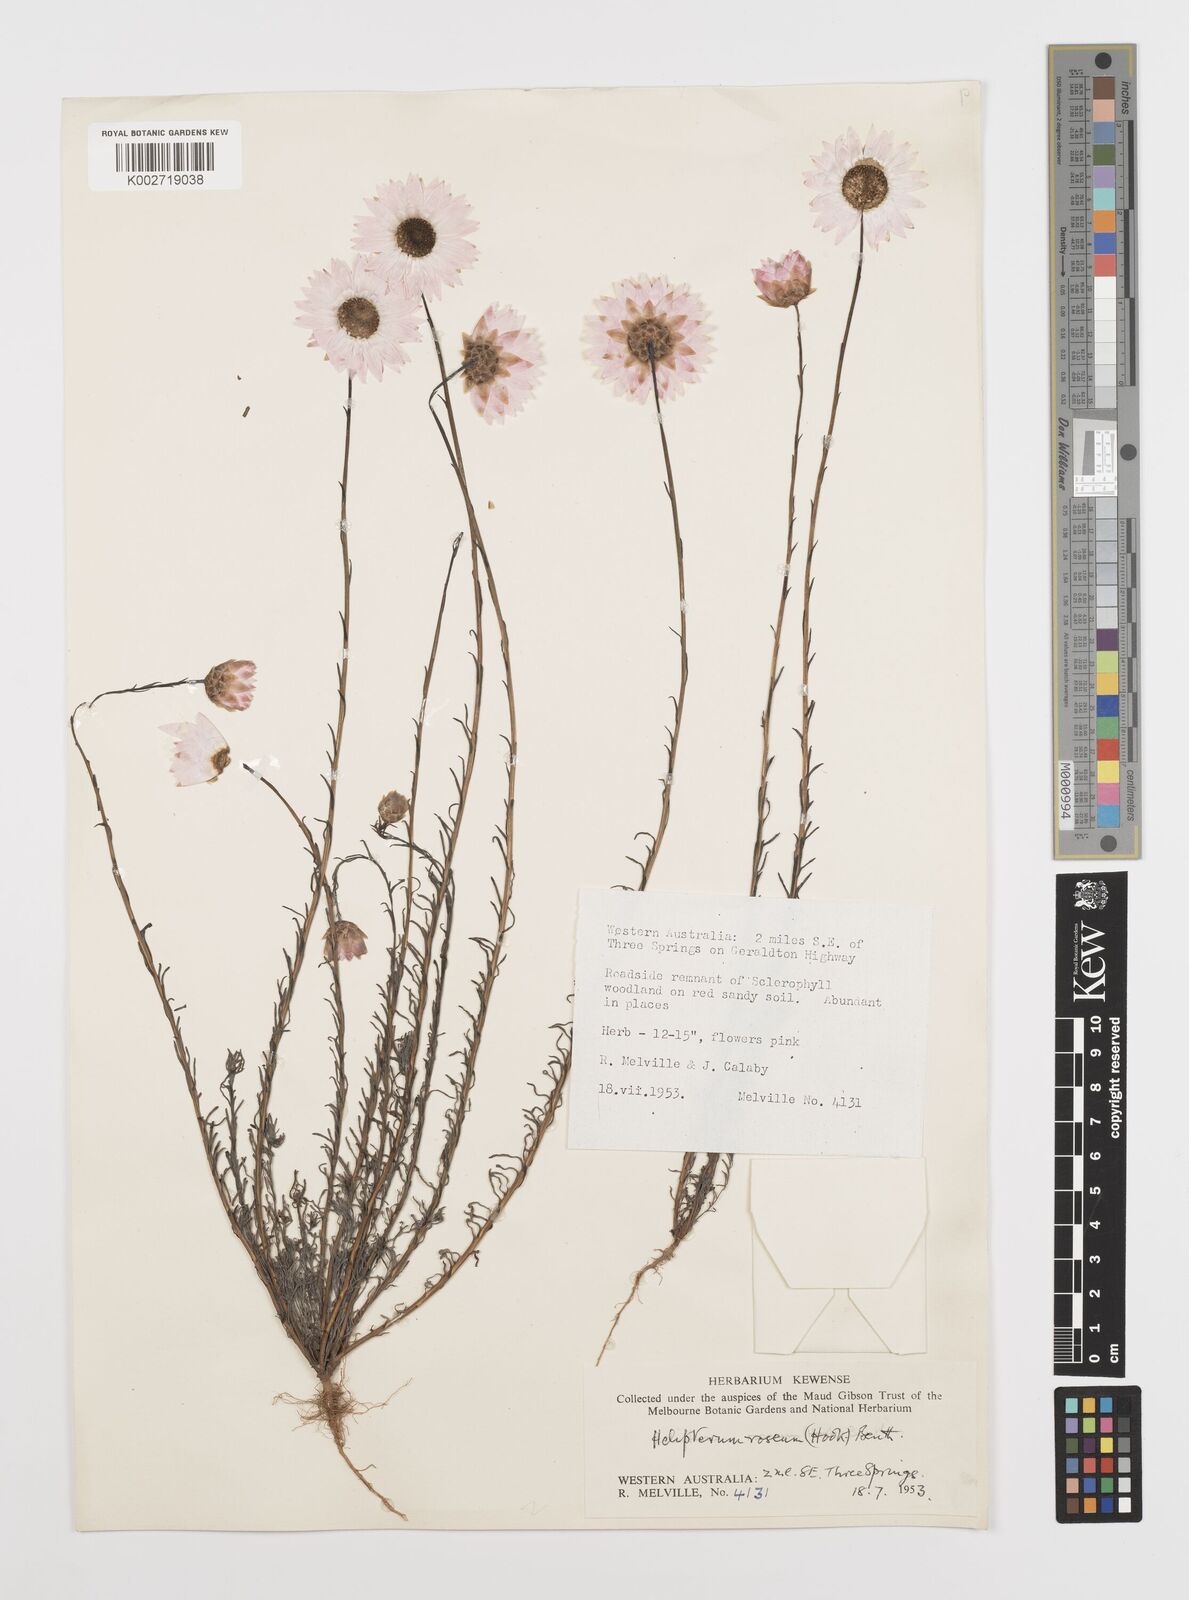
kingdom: Plantae
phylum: Tracheophyta
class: Magnoliopsida
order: Asterales
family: Asteraceae
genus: Rhodanthe
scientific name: Rhodanthe chlorocephala
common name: Rosy sunray
